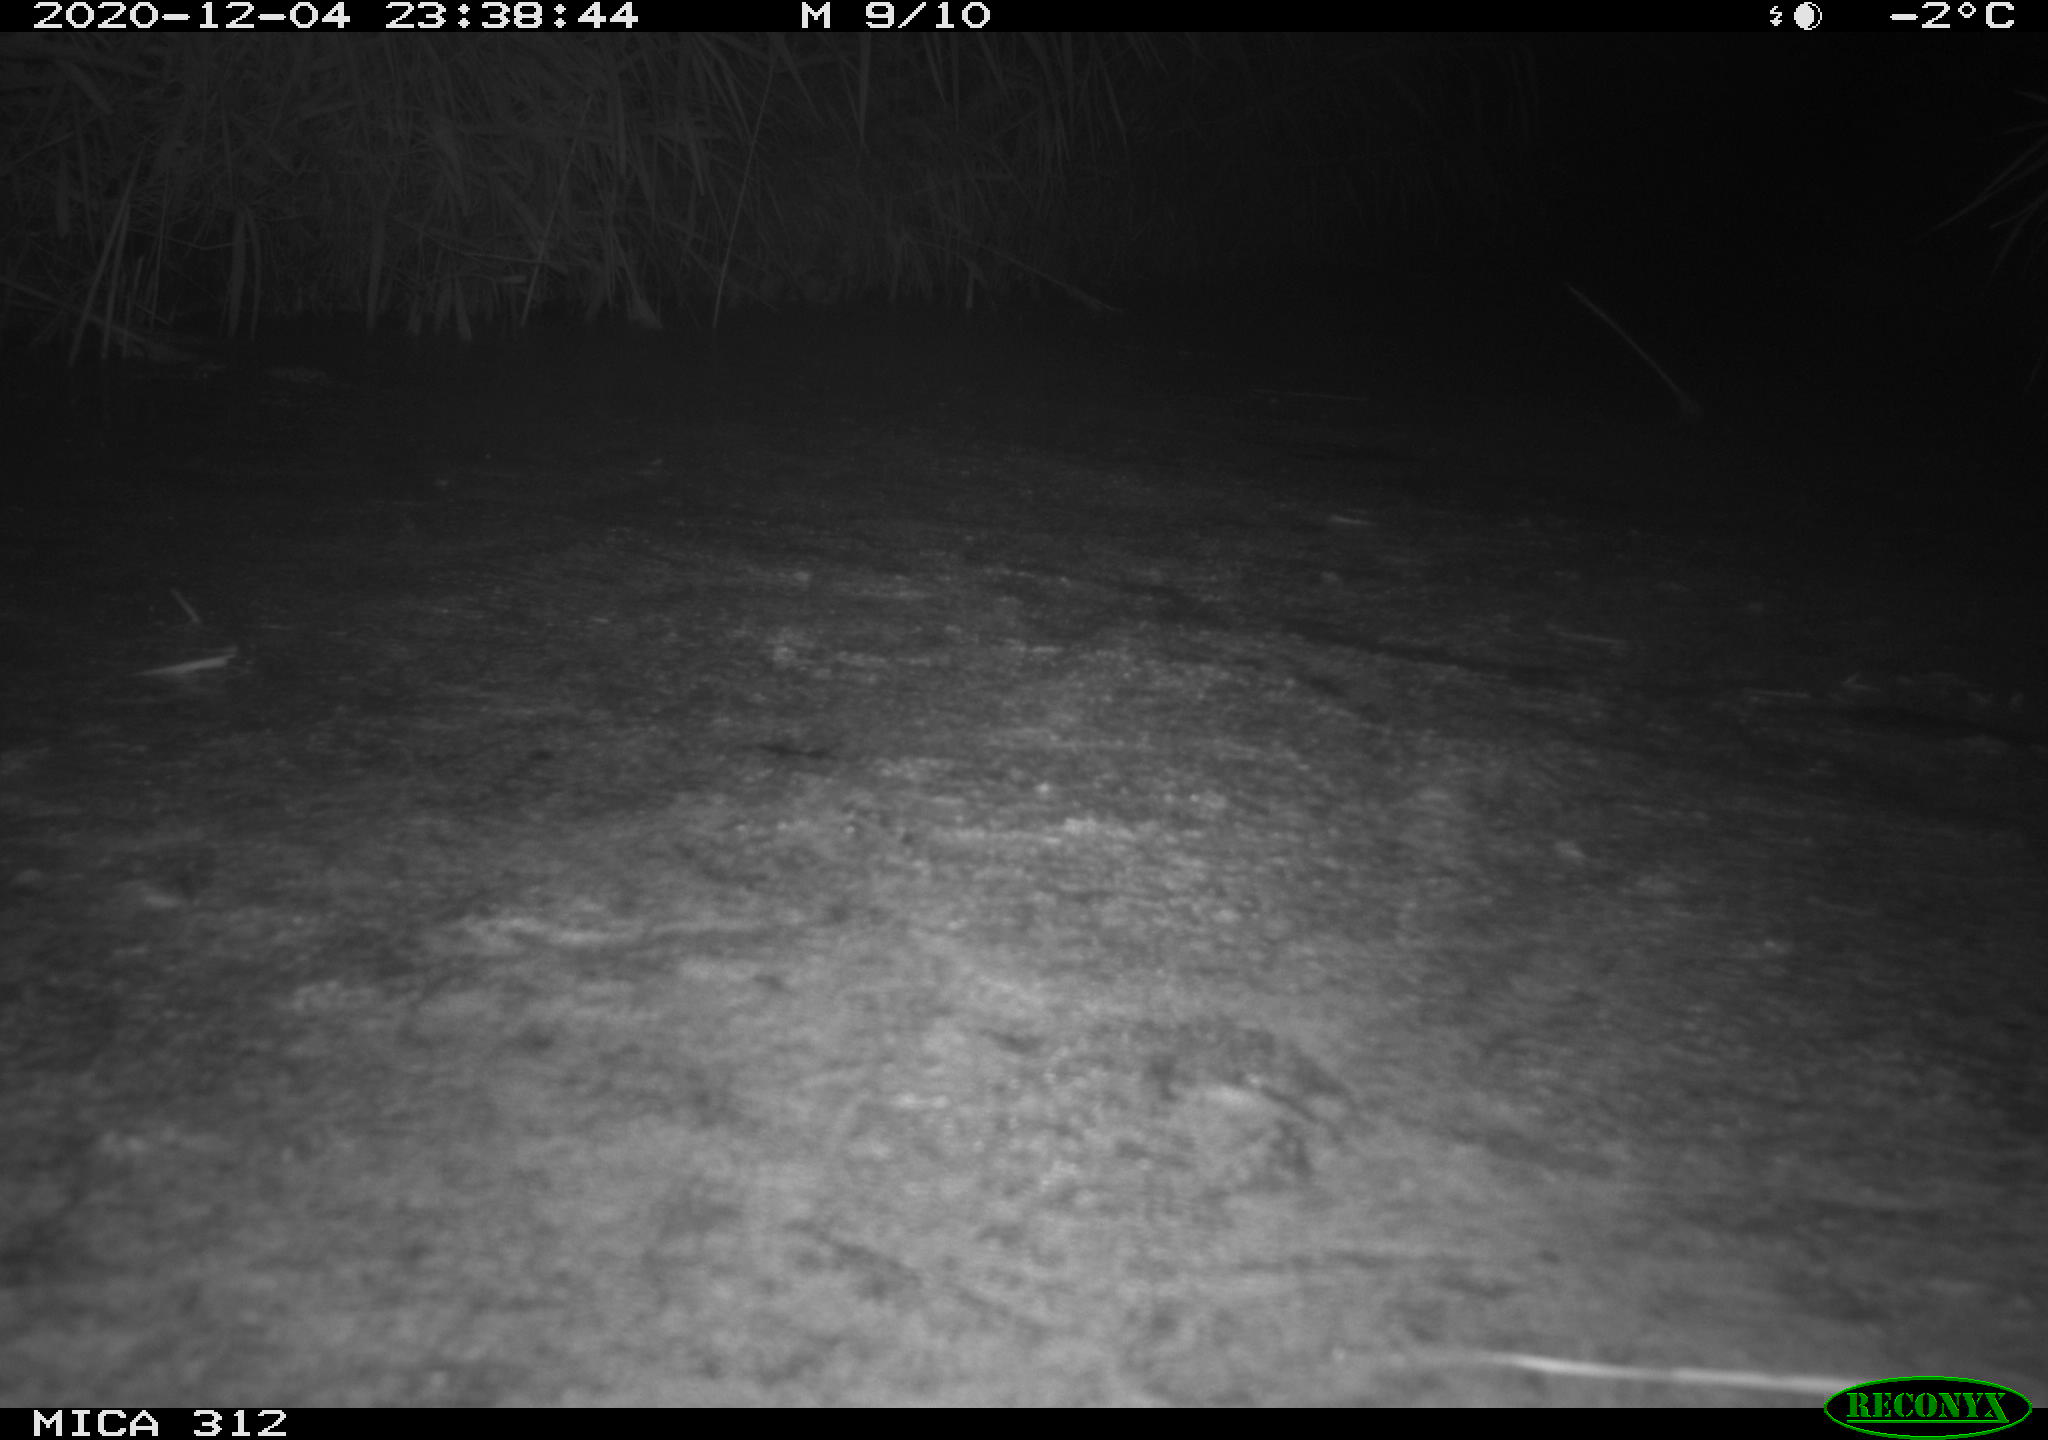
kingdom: Animalia
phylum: Chordata
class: Mammalia
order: Rodentia
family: Muridae
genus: Rattus
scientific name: Rattus norvegicus
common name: Brown rat
